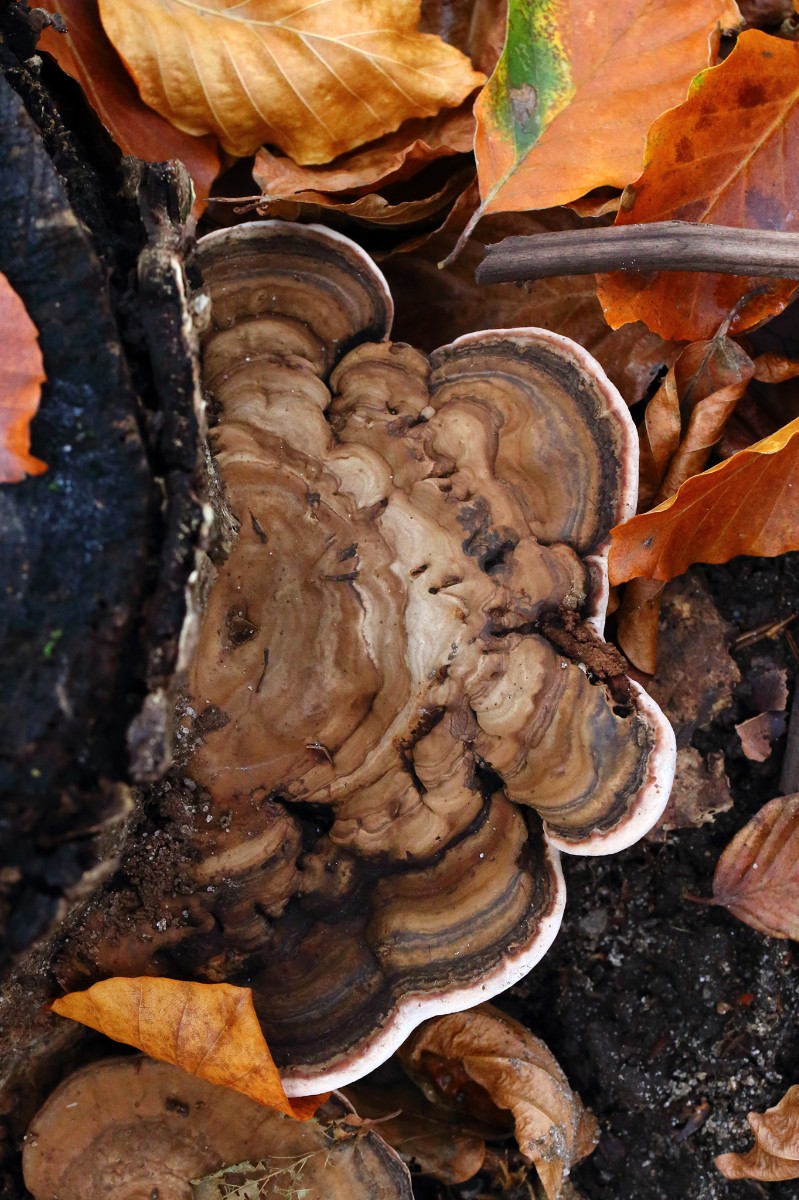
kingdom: Fungi
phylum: Basidiomycota
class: Agaricomycetes
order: Polyporales
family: Polyporaceae
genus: Ganoderma
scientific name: Ganoderma applanatum
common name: flad lakporesvamp
